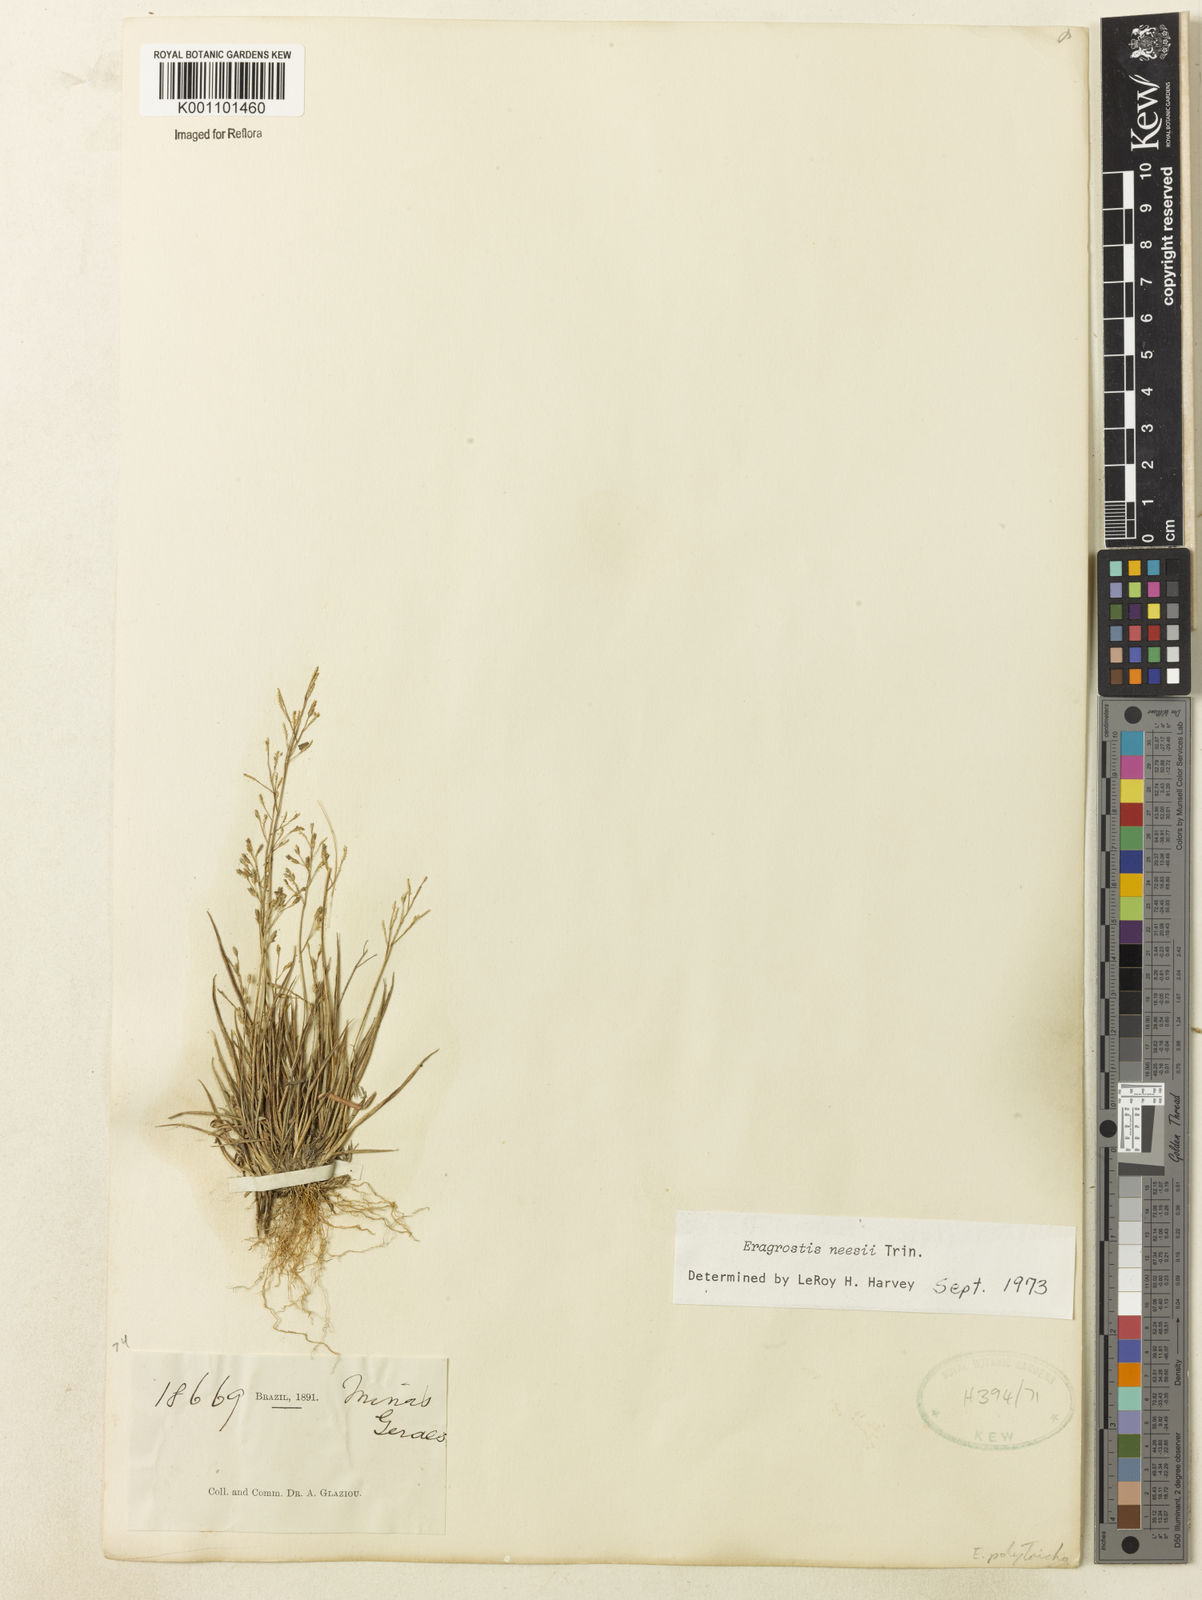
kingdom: Plantae
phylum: Tracheophyta
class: Liliopsida
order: Poales
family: Poaceae
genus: Eragrostis
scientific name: Eragrostis neesii
